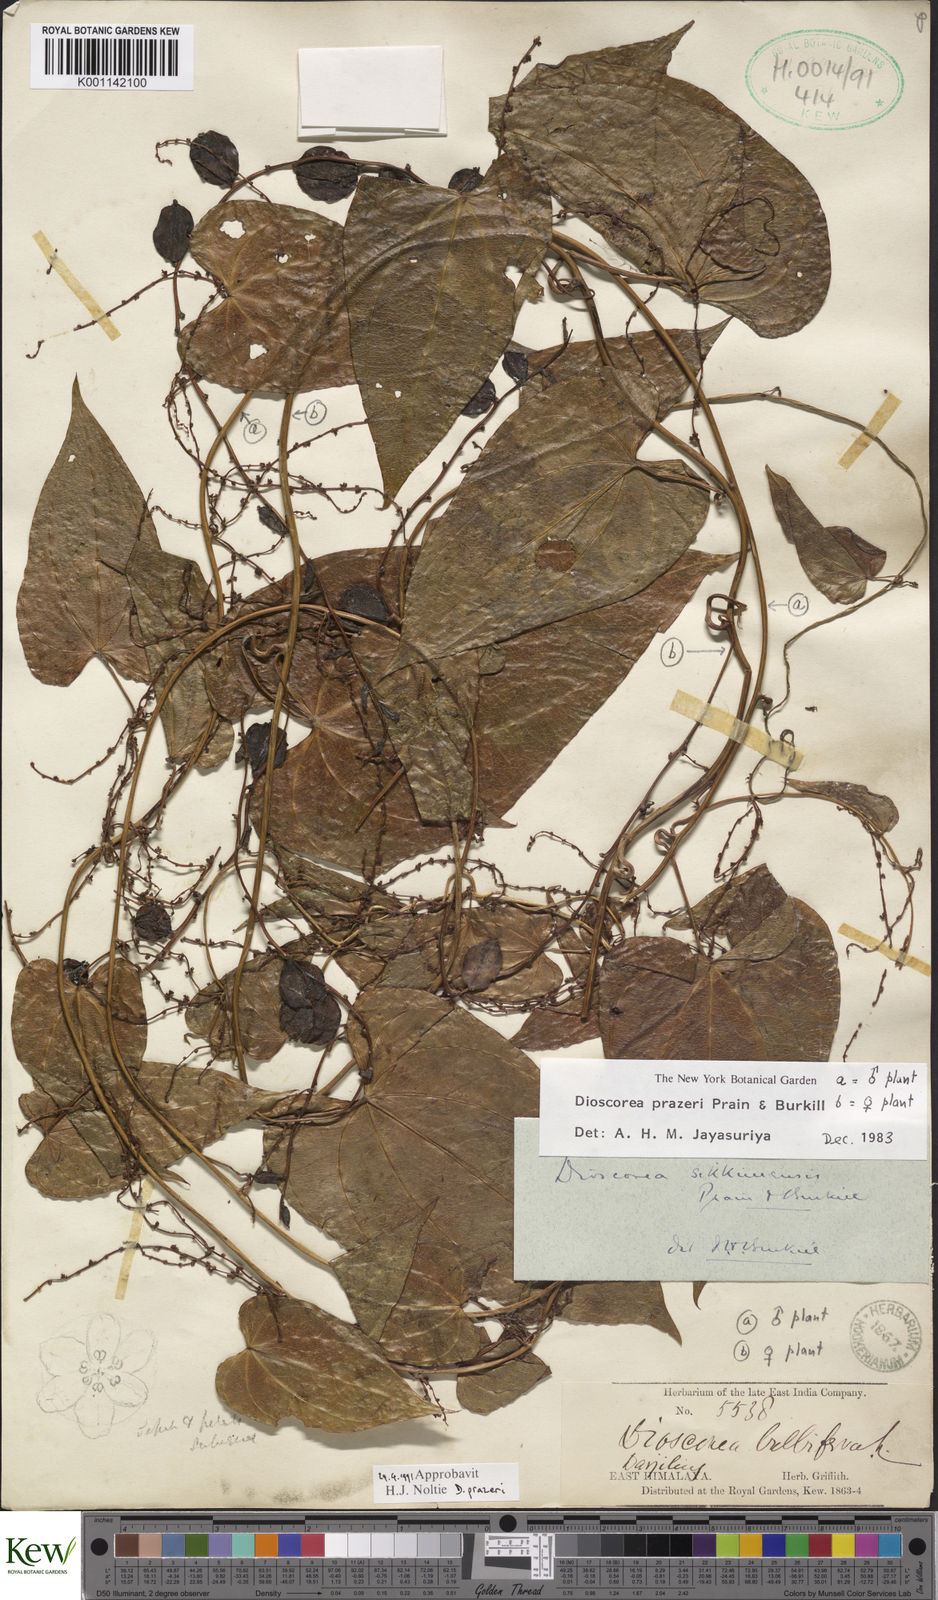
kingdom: Plantae
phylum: Tracheophyta
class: Liliopsida
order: Dioscoreales
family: Dioscoreaceae
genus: Dioscorea
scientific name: Dioscorea prazeri
